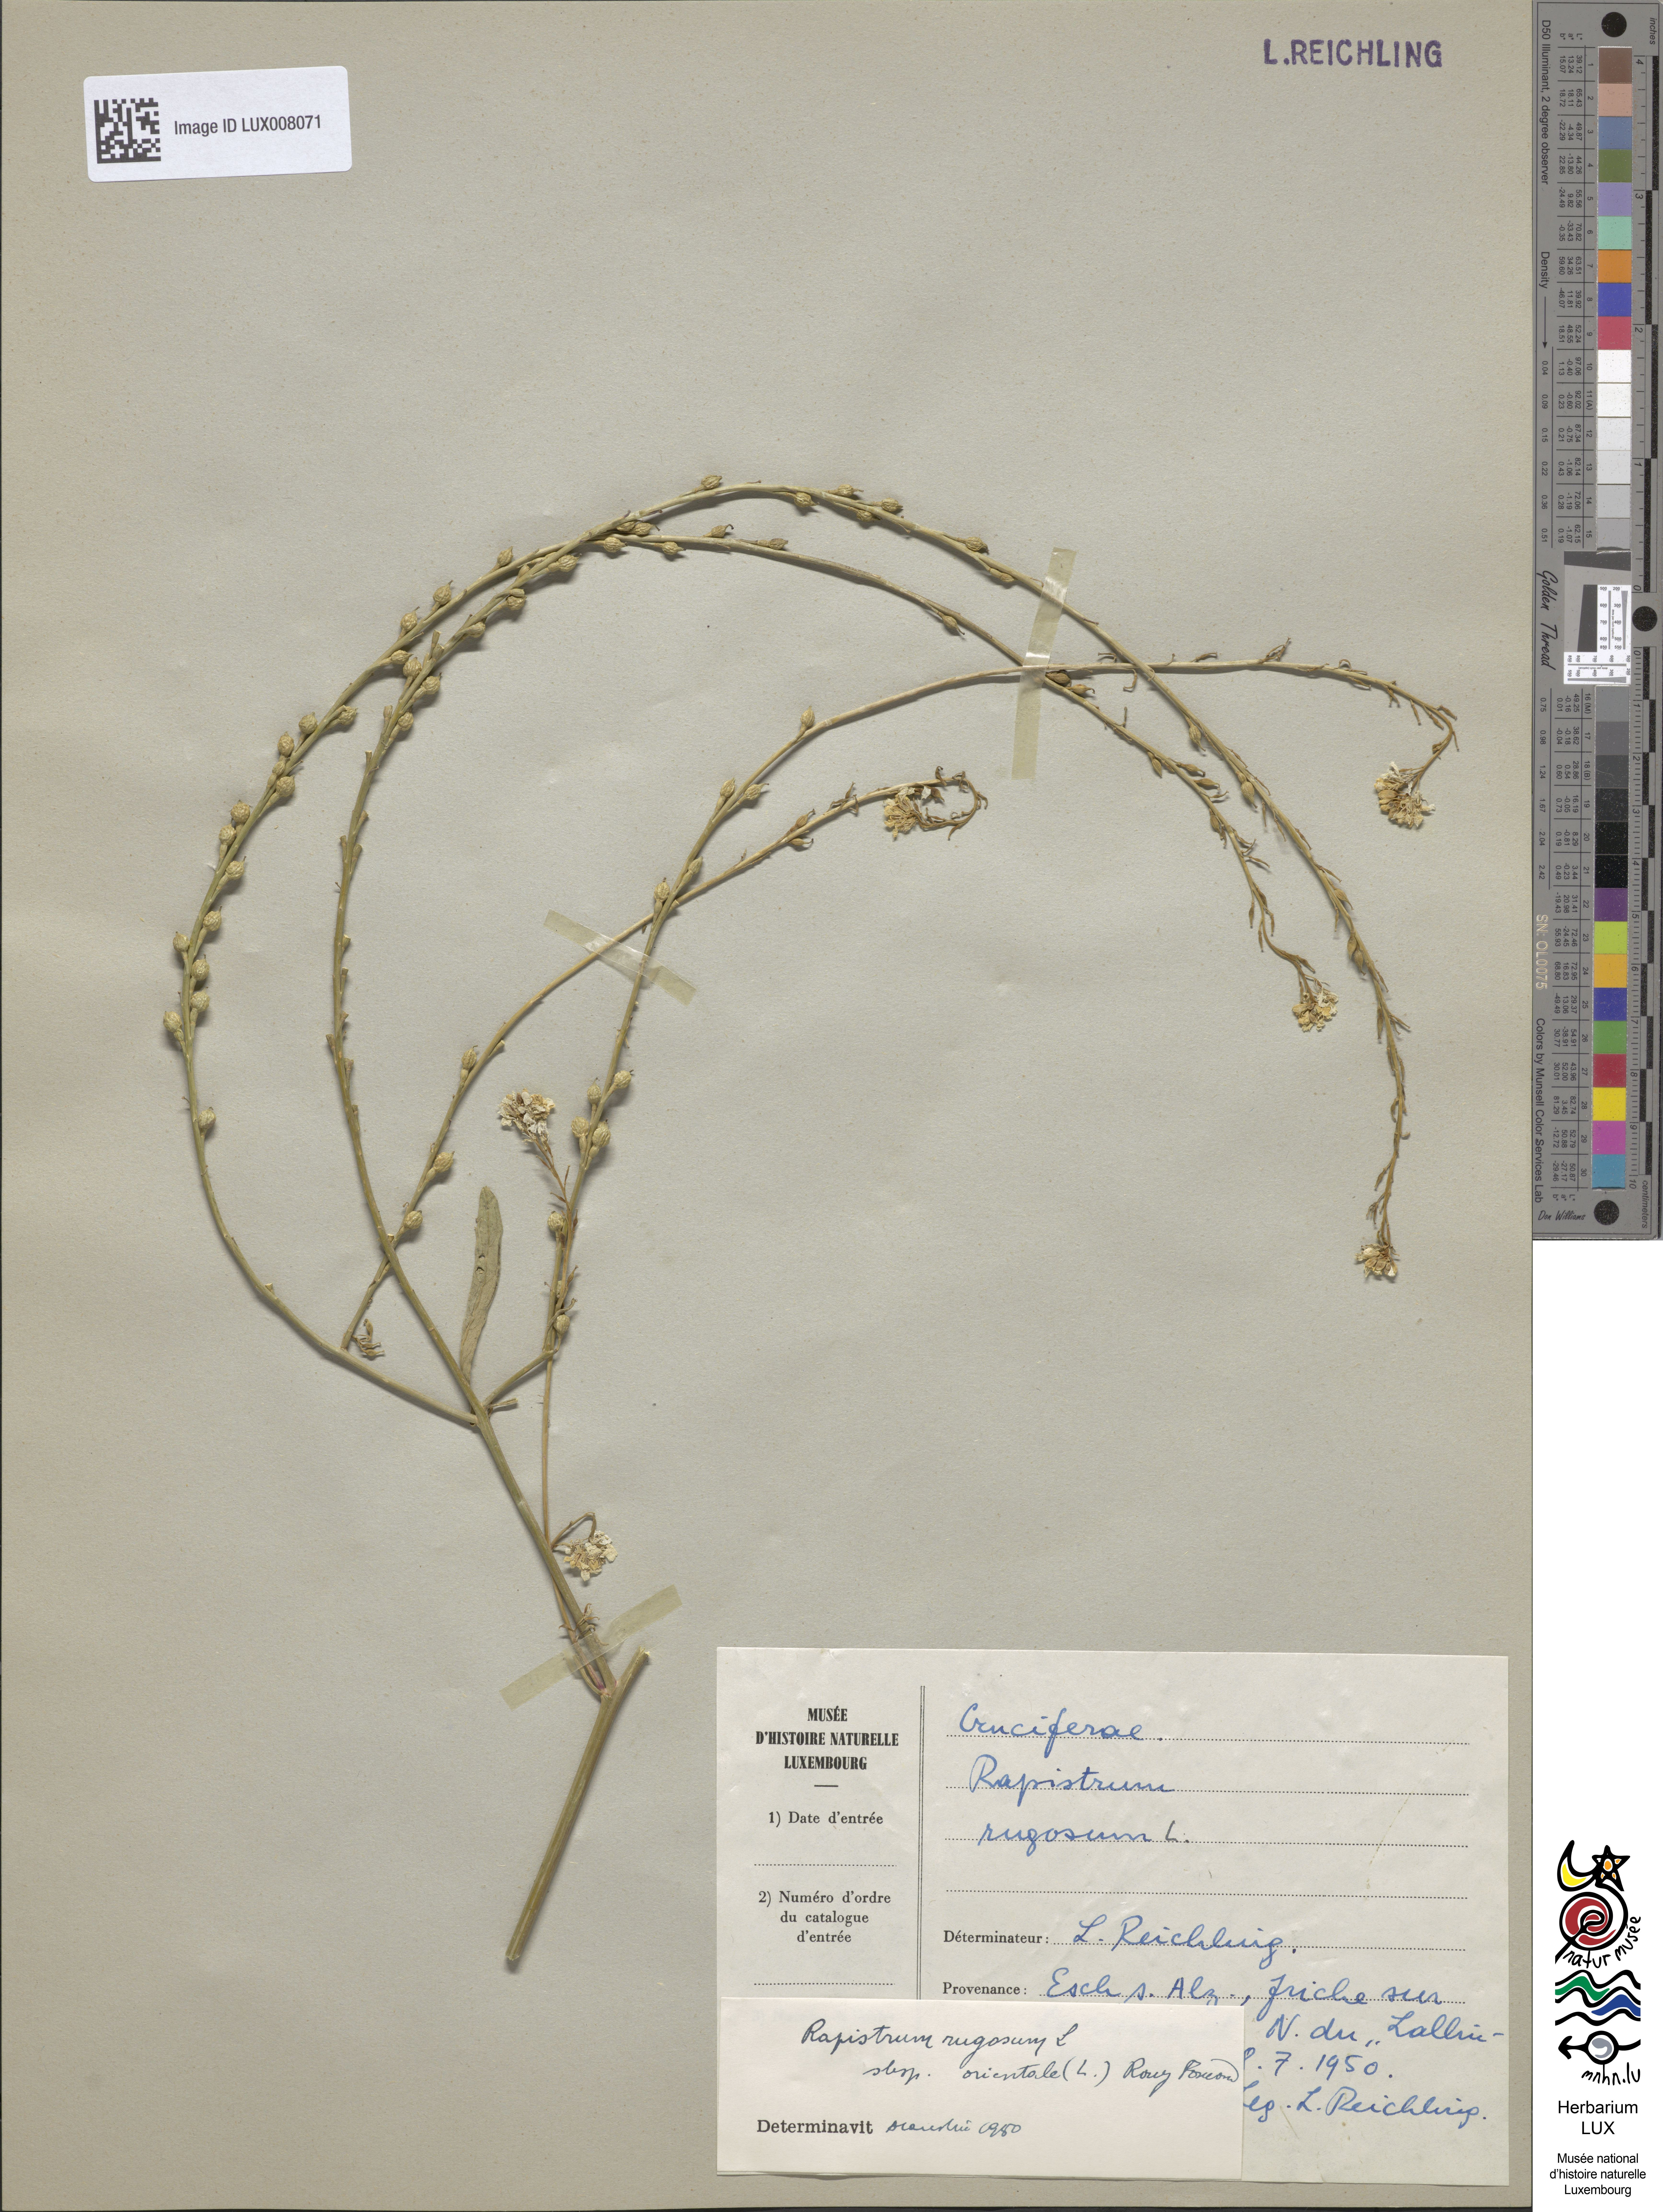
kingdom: Plantae
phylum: Tracheophyta
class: Magnoliopsida
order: Brassicales
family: Brassicaceae
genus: Rapistrum
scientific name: Rapistrum rugosum
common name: Annual bastardcabbage
